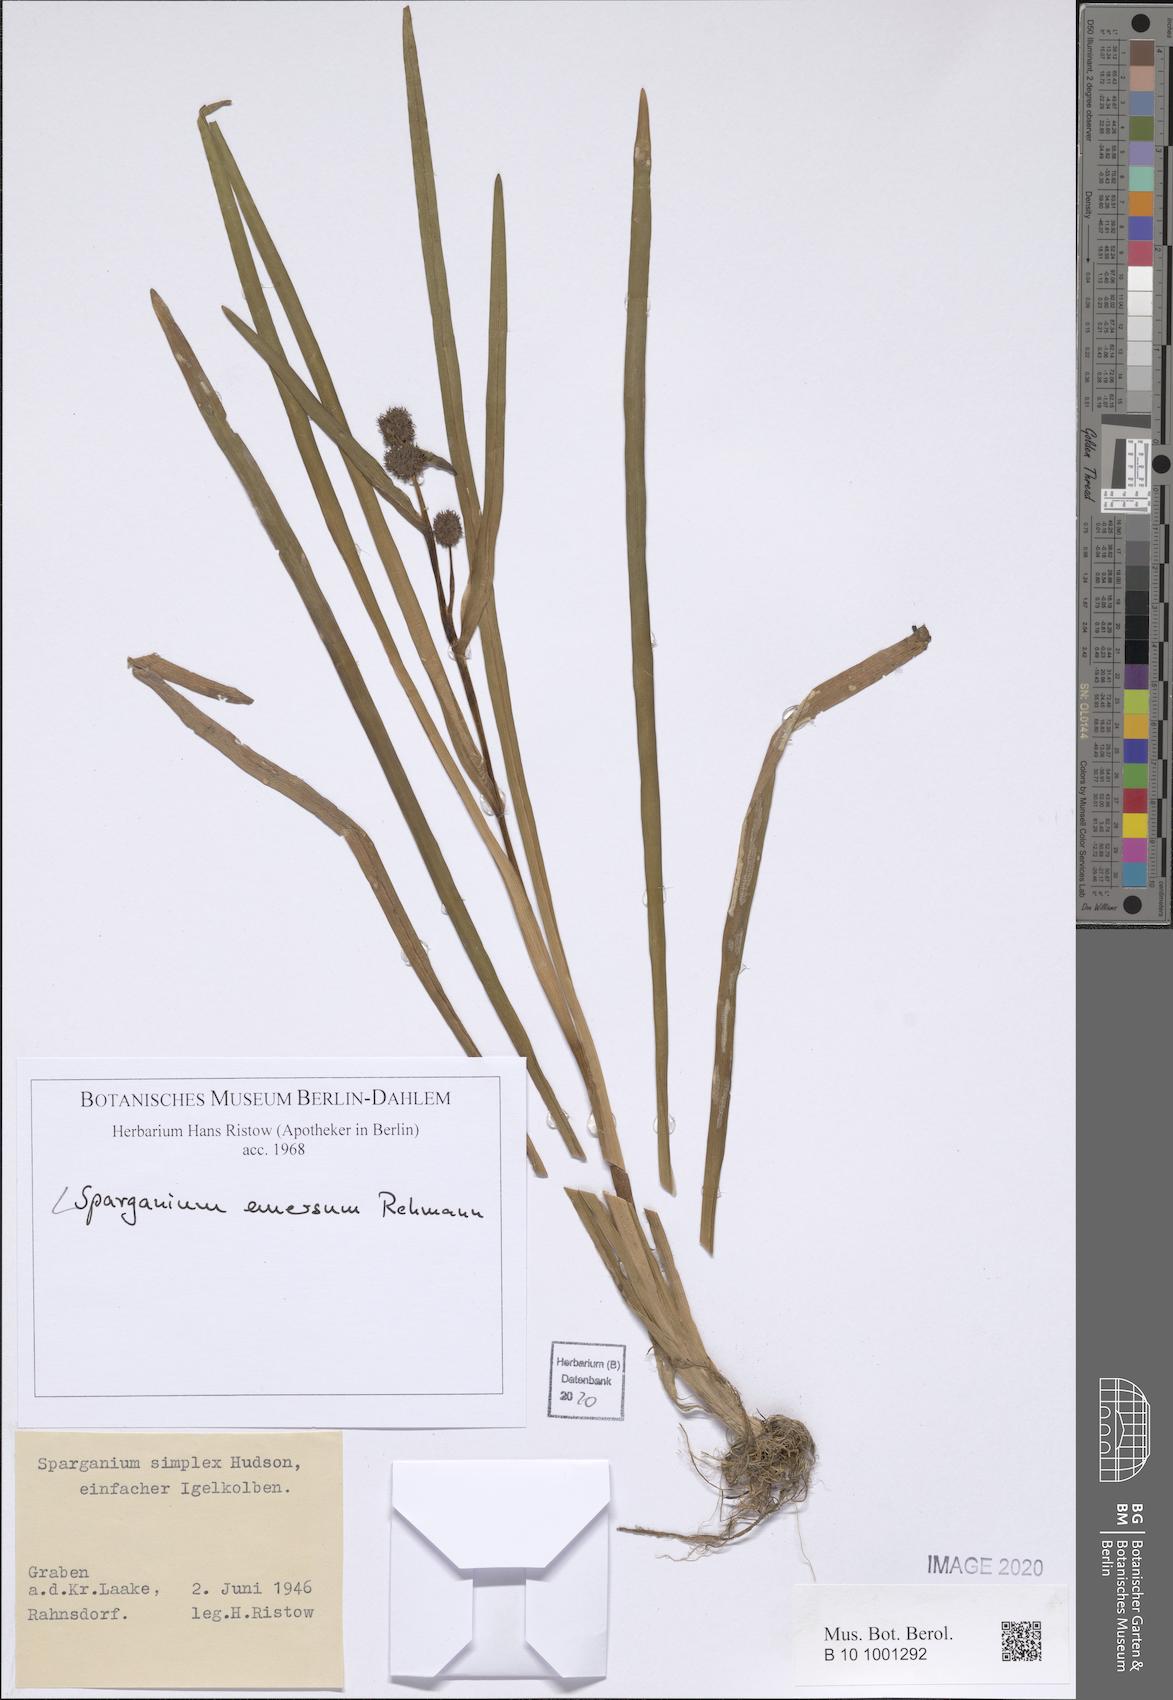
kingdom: Plantae
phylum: Tracheophyta
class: Liliopsida
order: Poales
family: Typhaceae
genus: Sparganium
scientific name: Sparganium emersum
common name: Unbranched bur-reed
